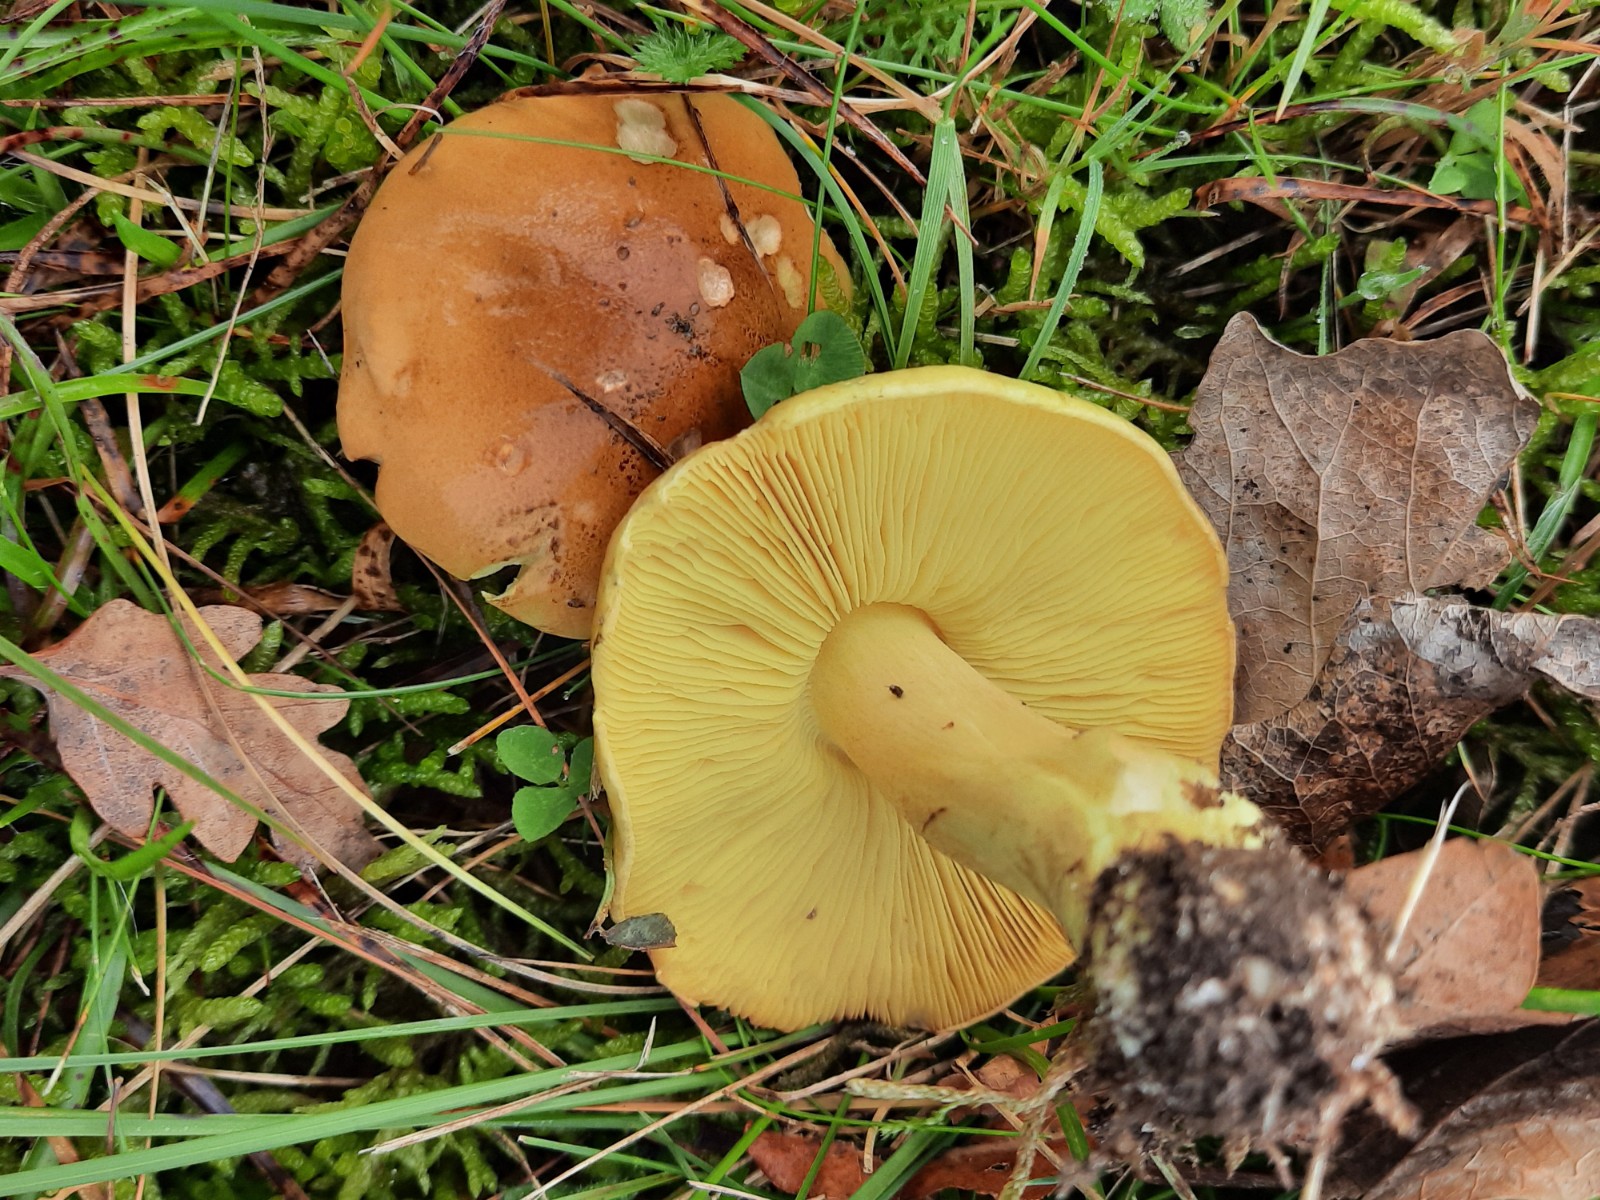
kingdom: Fungi
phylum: Basidiomycota
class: Agaricomycetes
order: Agaricales
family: Tricholomataceae
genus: Tricholoma
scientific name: Tricholoma frondosae
